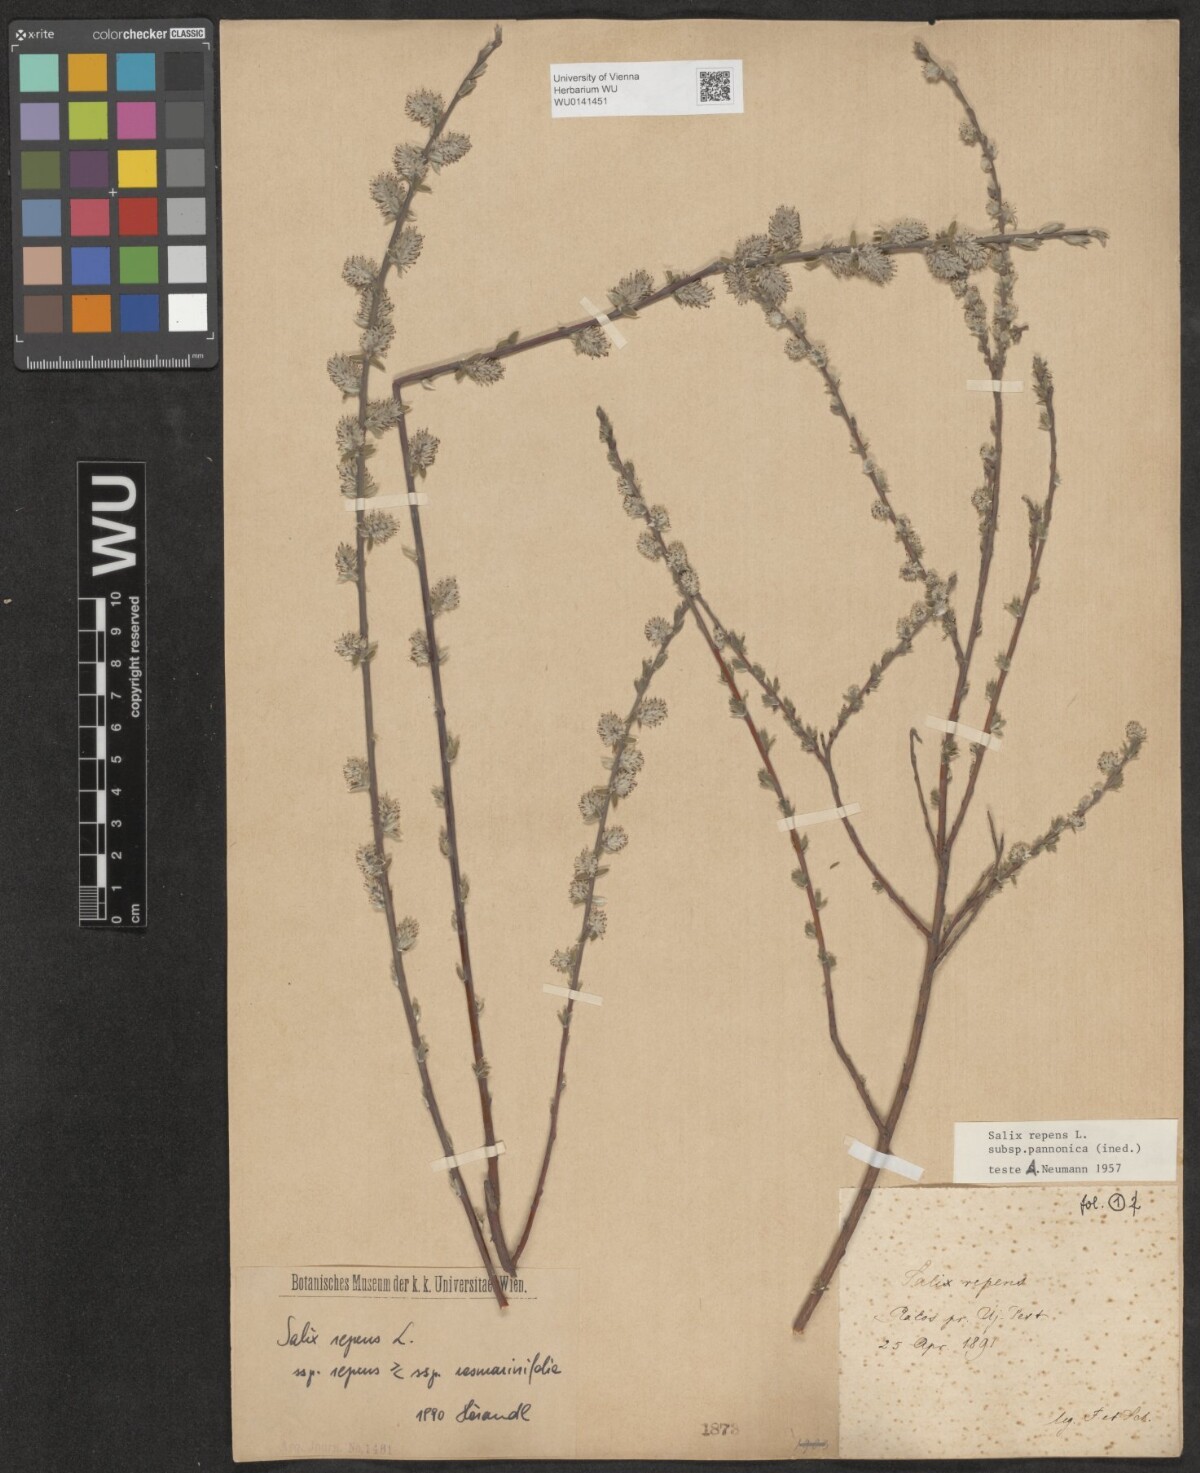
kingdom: Plantae
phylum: Tracheophyta
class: Magnoliopsida
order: Malpighiales
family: Salicaceae
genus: Salix
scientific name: Salix repens
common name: Creeping willow
